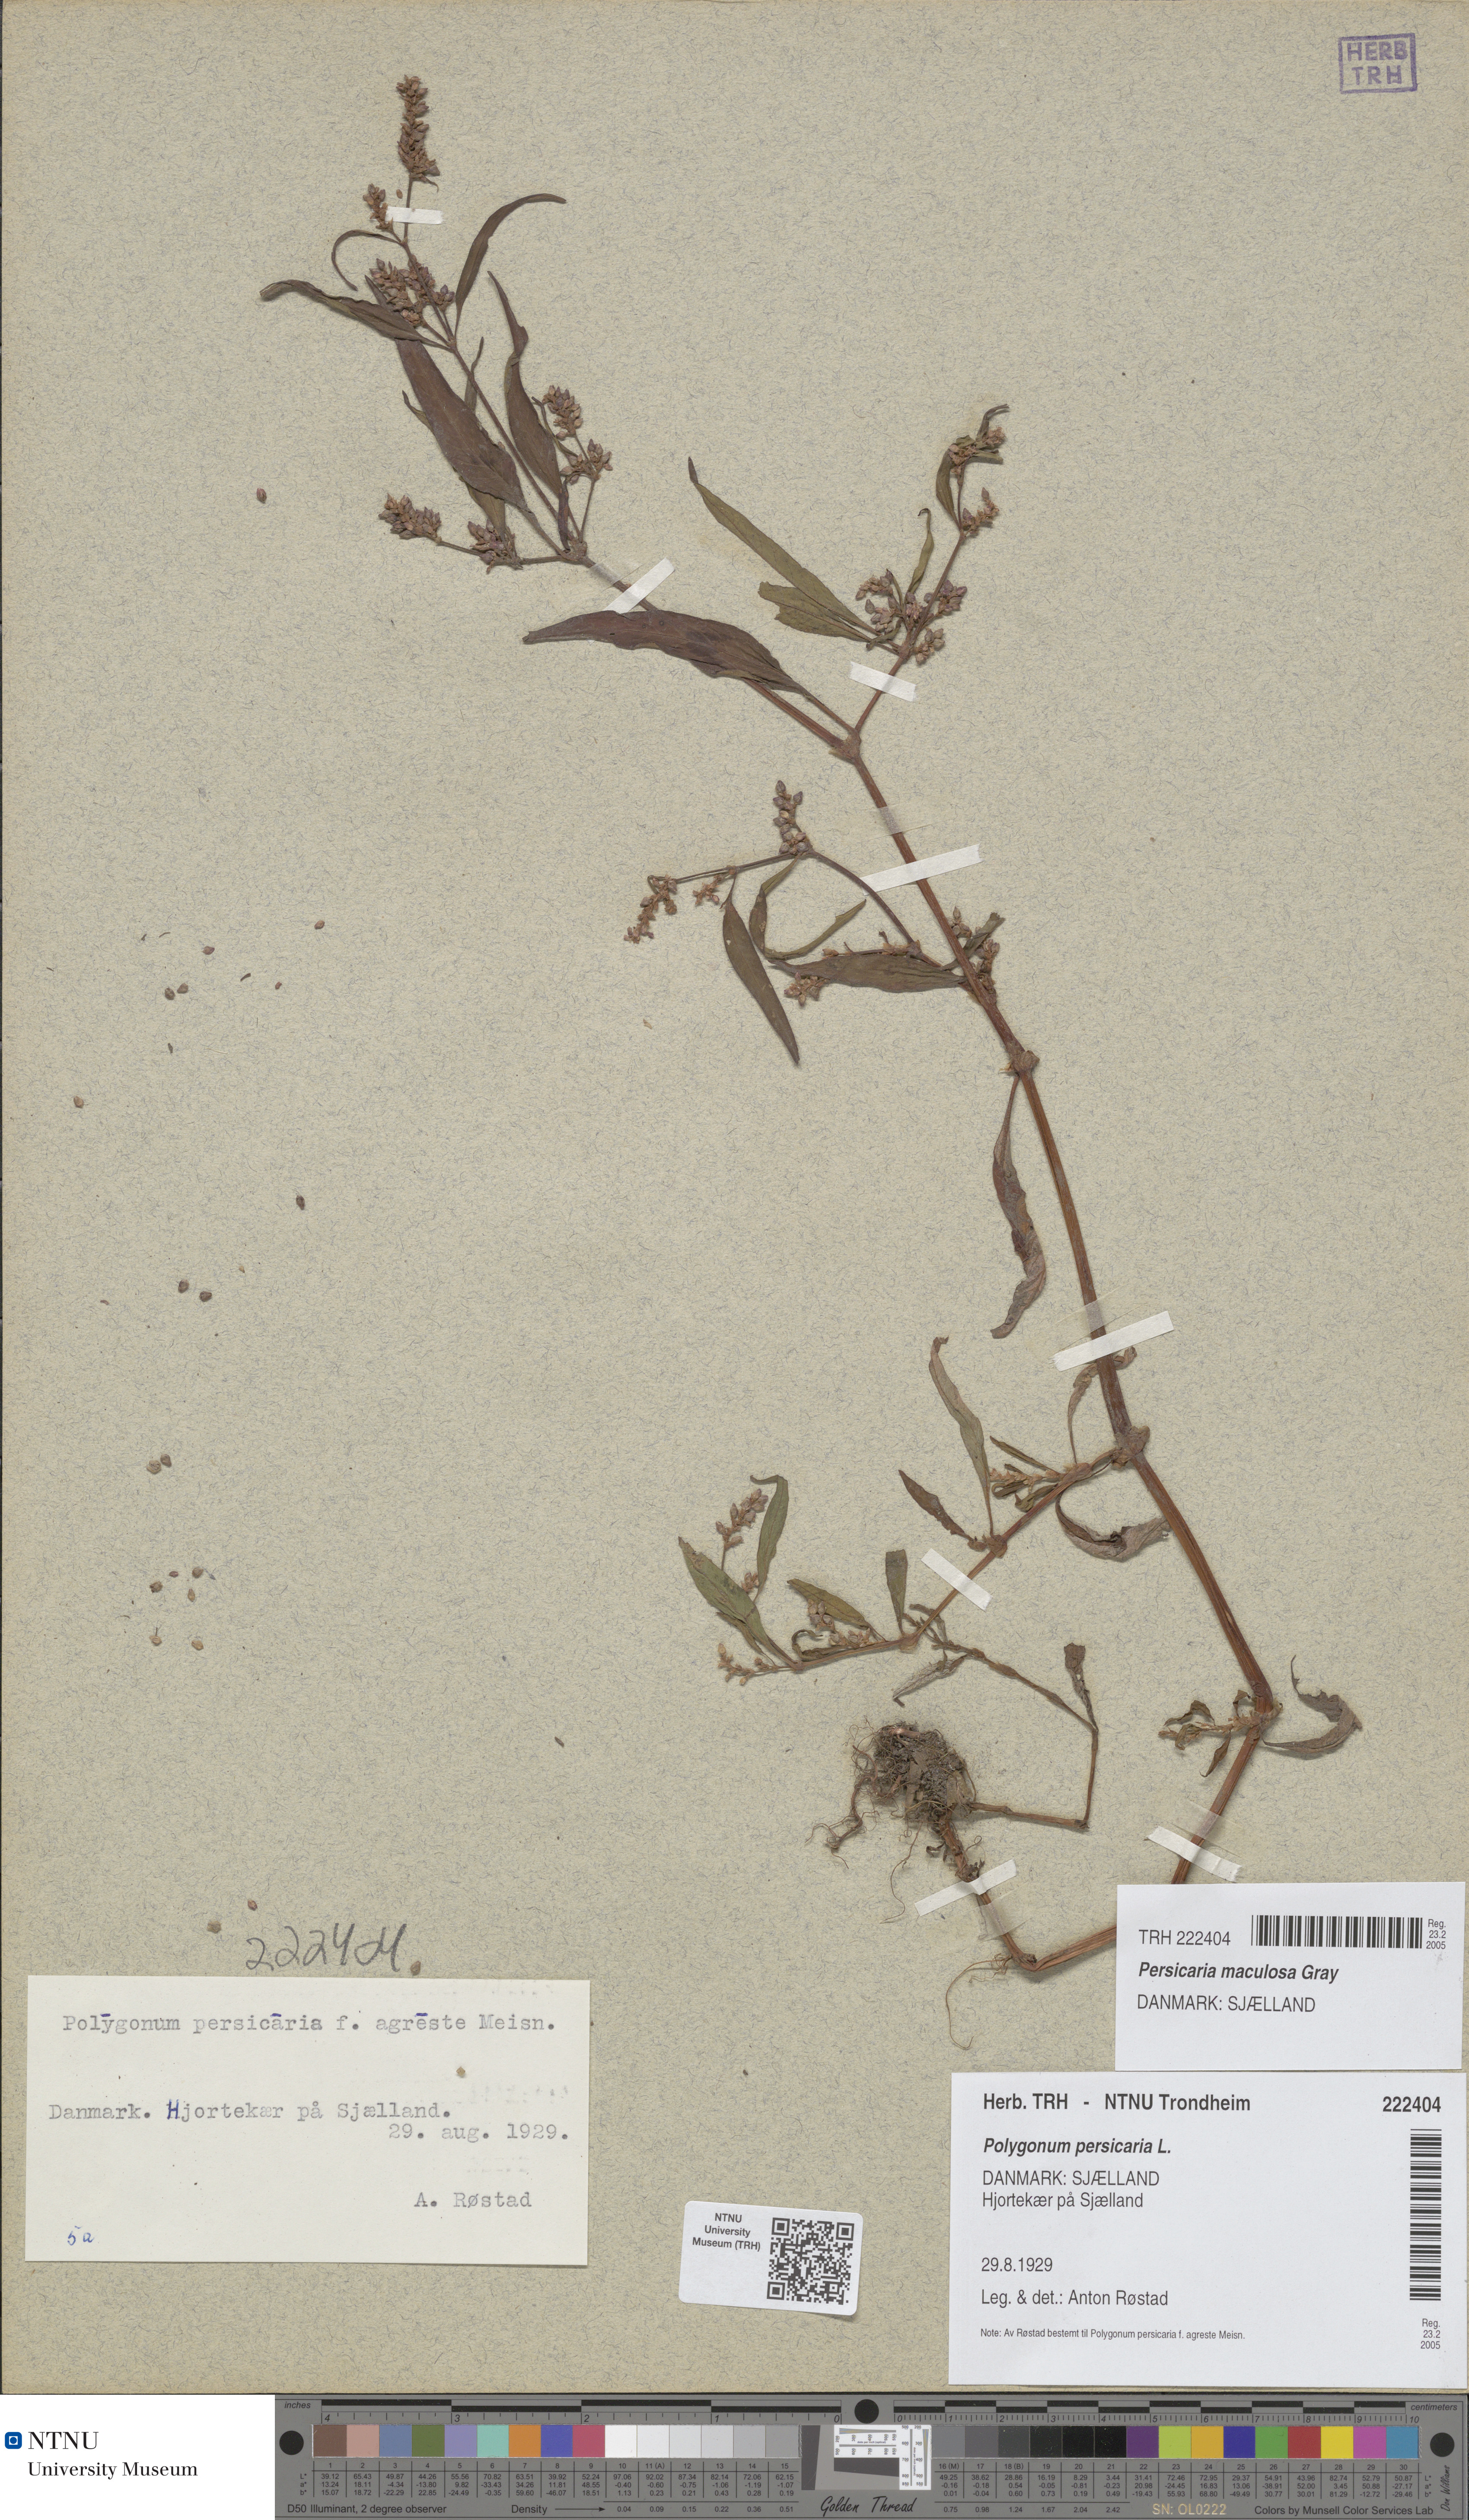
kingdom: Plantae
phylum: Tracheophyta
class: Magnoliopsida
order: Caryophyllales
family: Polygonaceae
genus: Persicaria
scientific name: Persicaria maculosa
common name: Redshank
